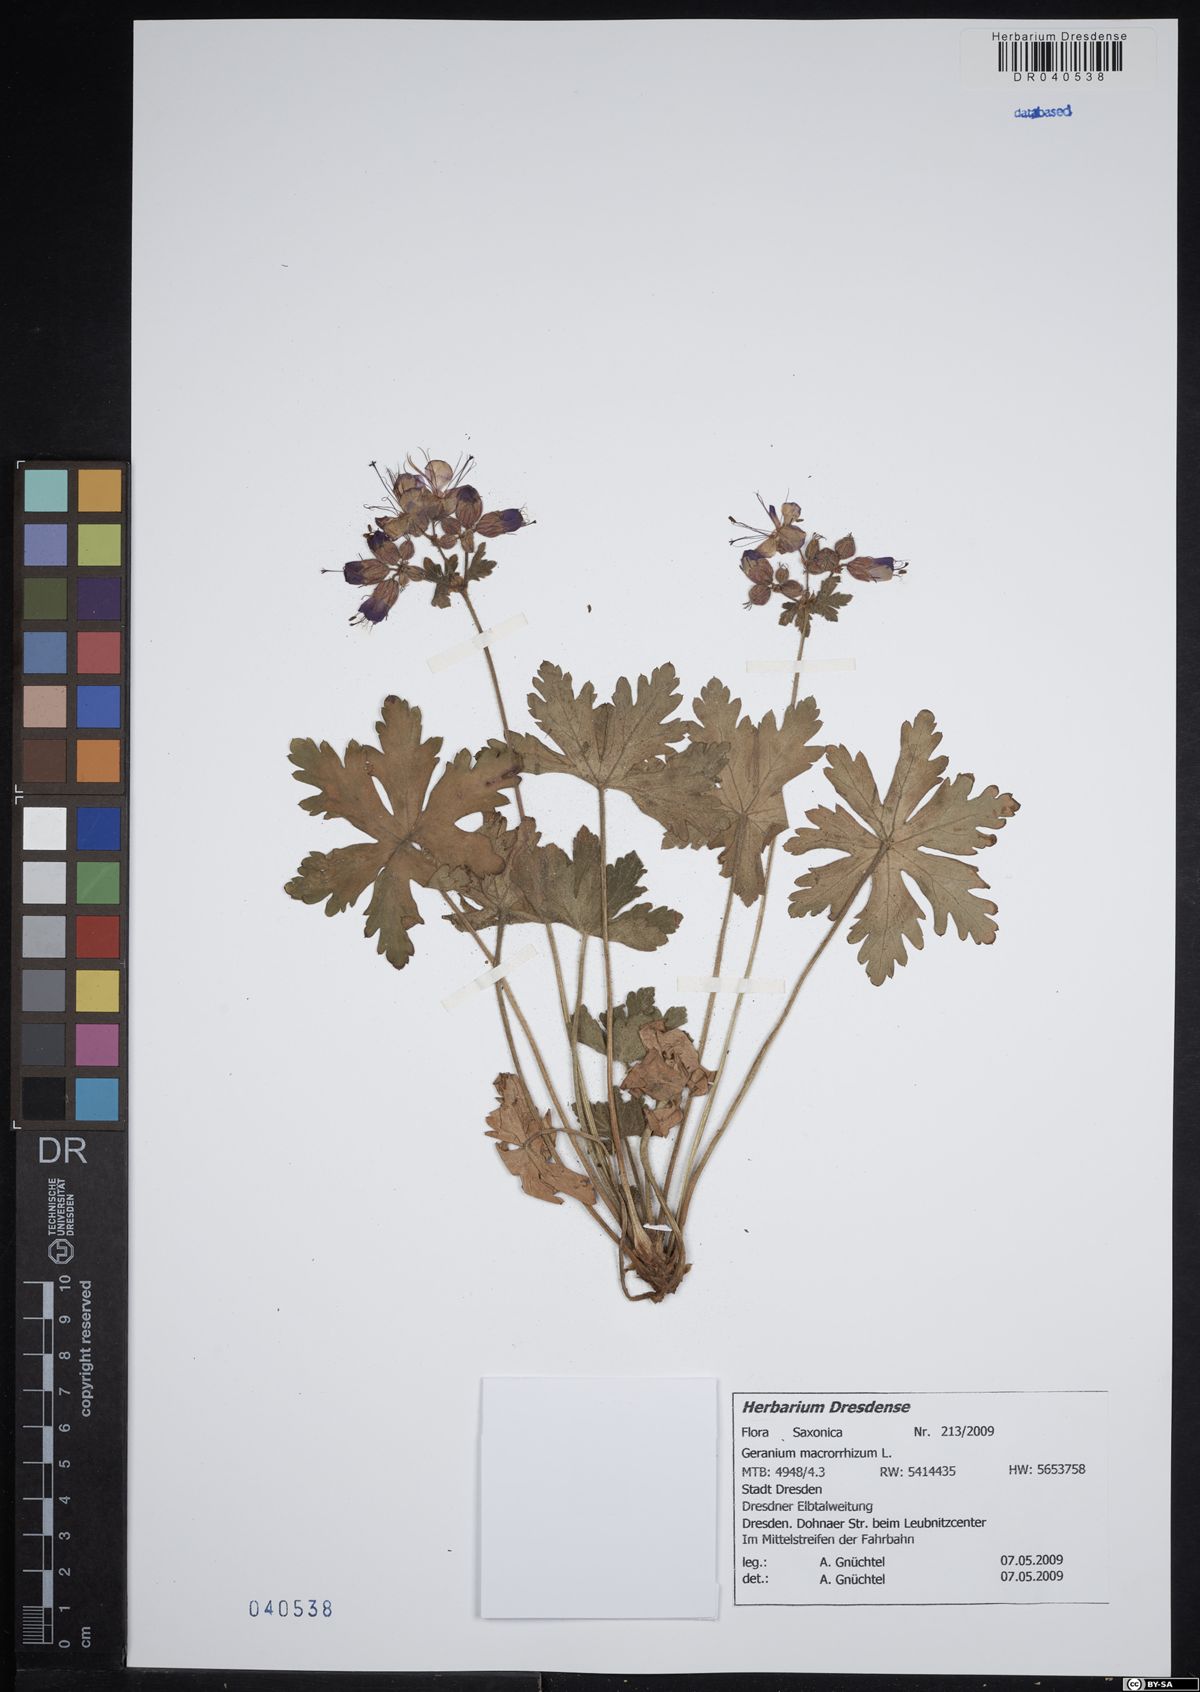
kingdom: Plantae
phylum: Tracheophyta
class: Magnoliopsida
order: Geraniales
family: Geraniaceae
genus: Geranium
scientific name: Geranium macrorrhizum
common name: Rock crane's-bill
